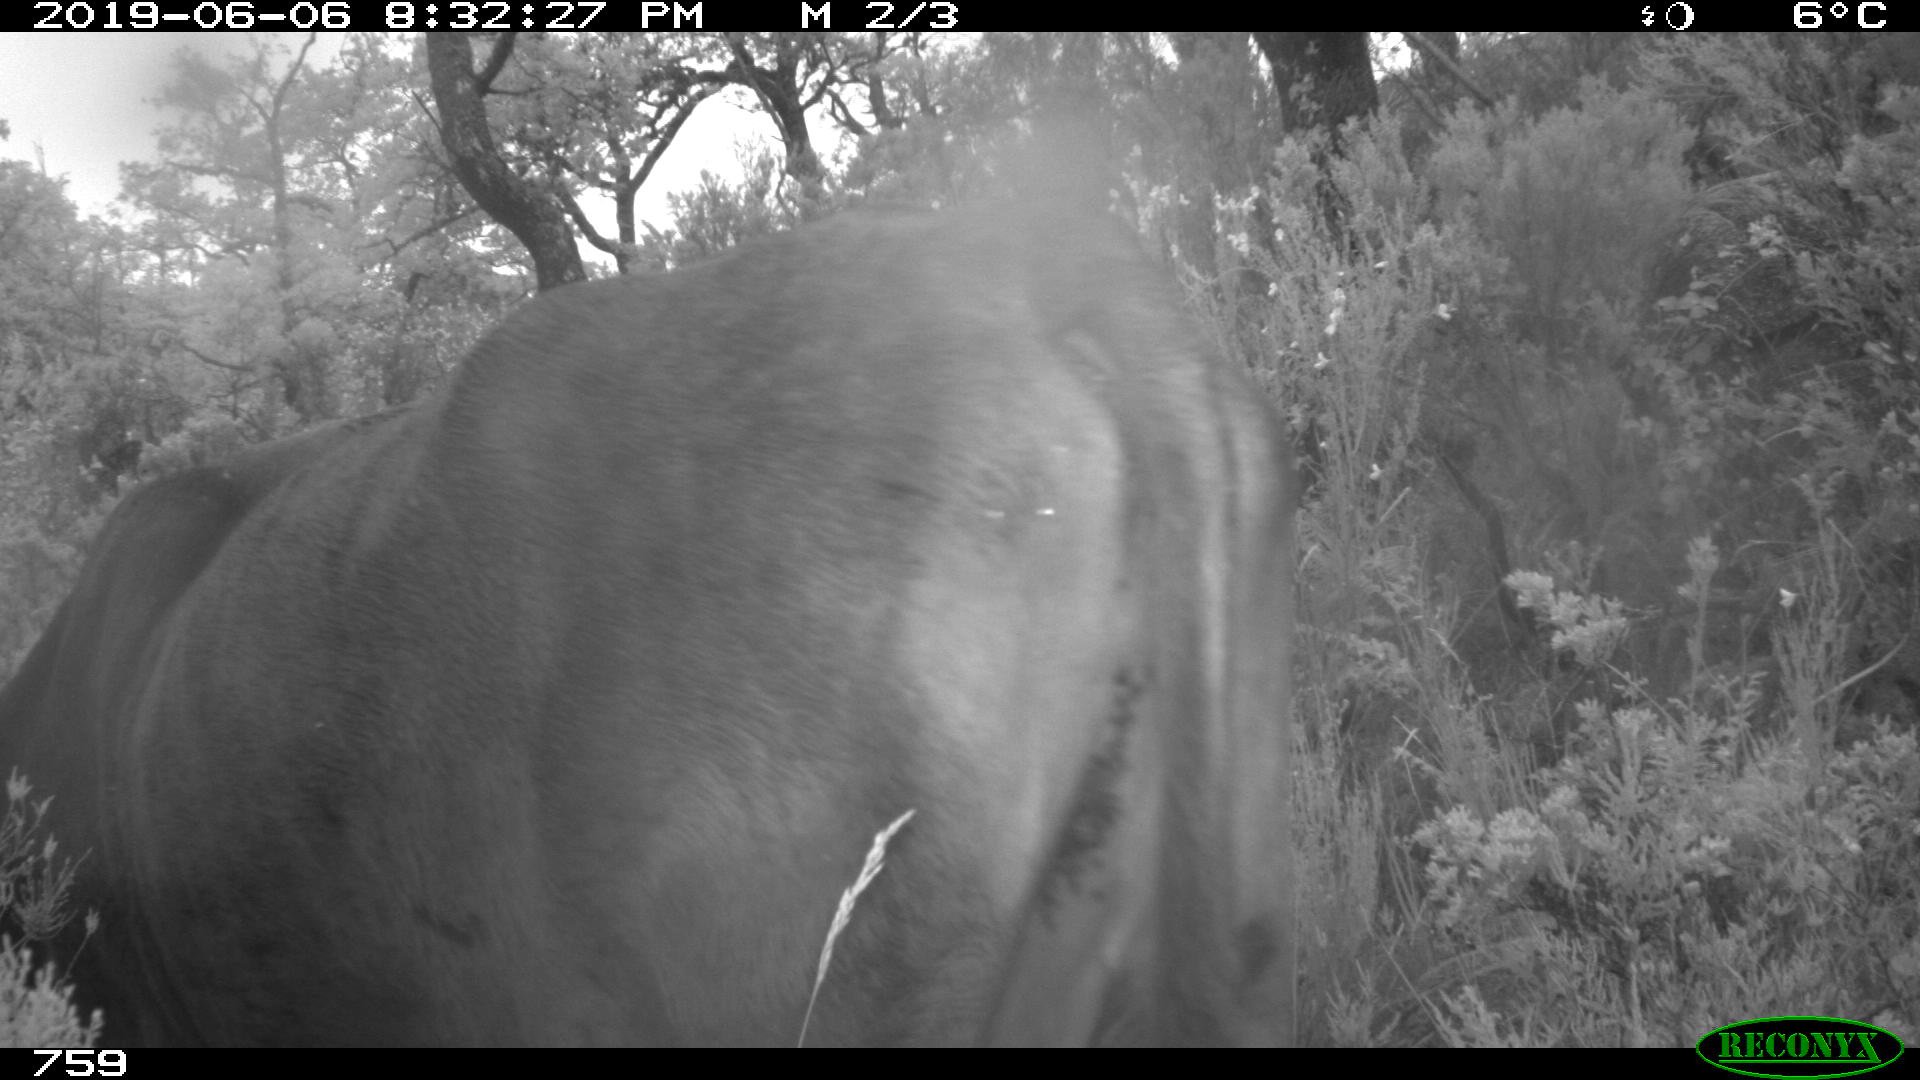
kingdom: Animalia
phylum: Chordata
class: Mammalia
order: Artiodactyla
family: Bovidae
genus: Bos
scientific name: Bos taurus
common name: Domesticated cattle
